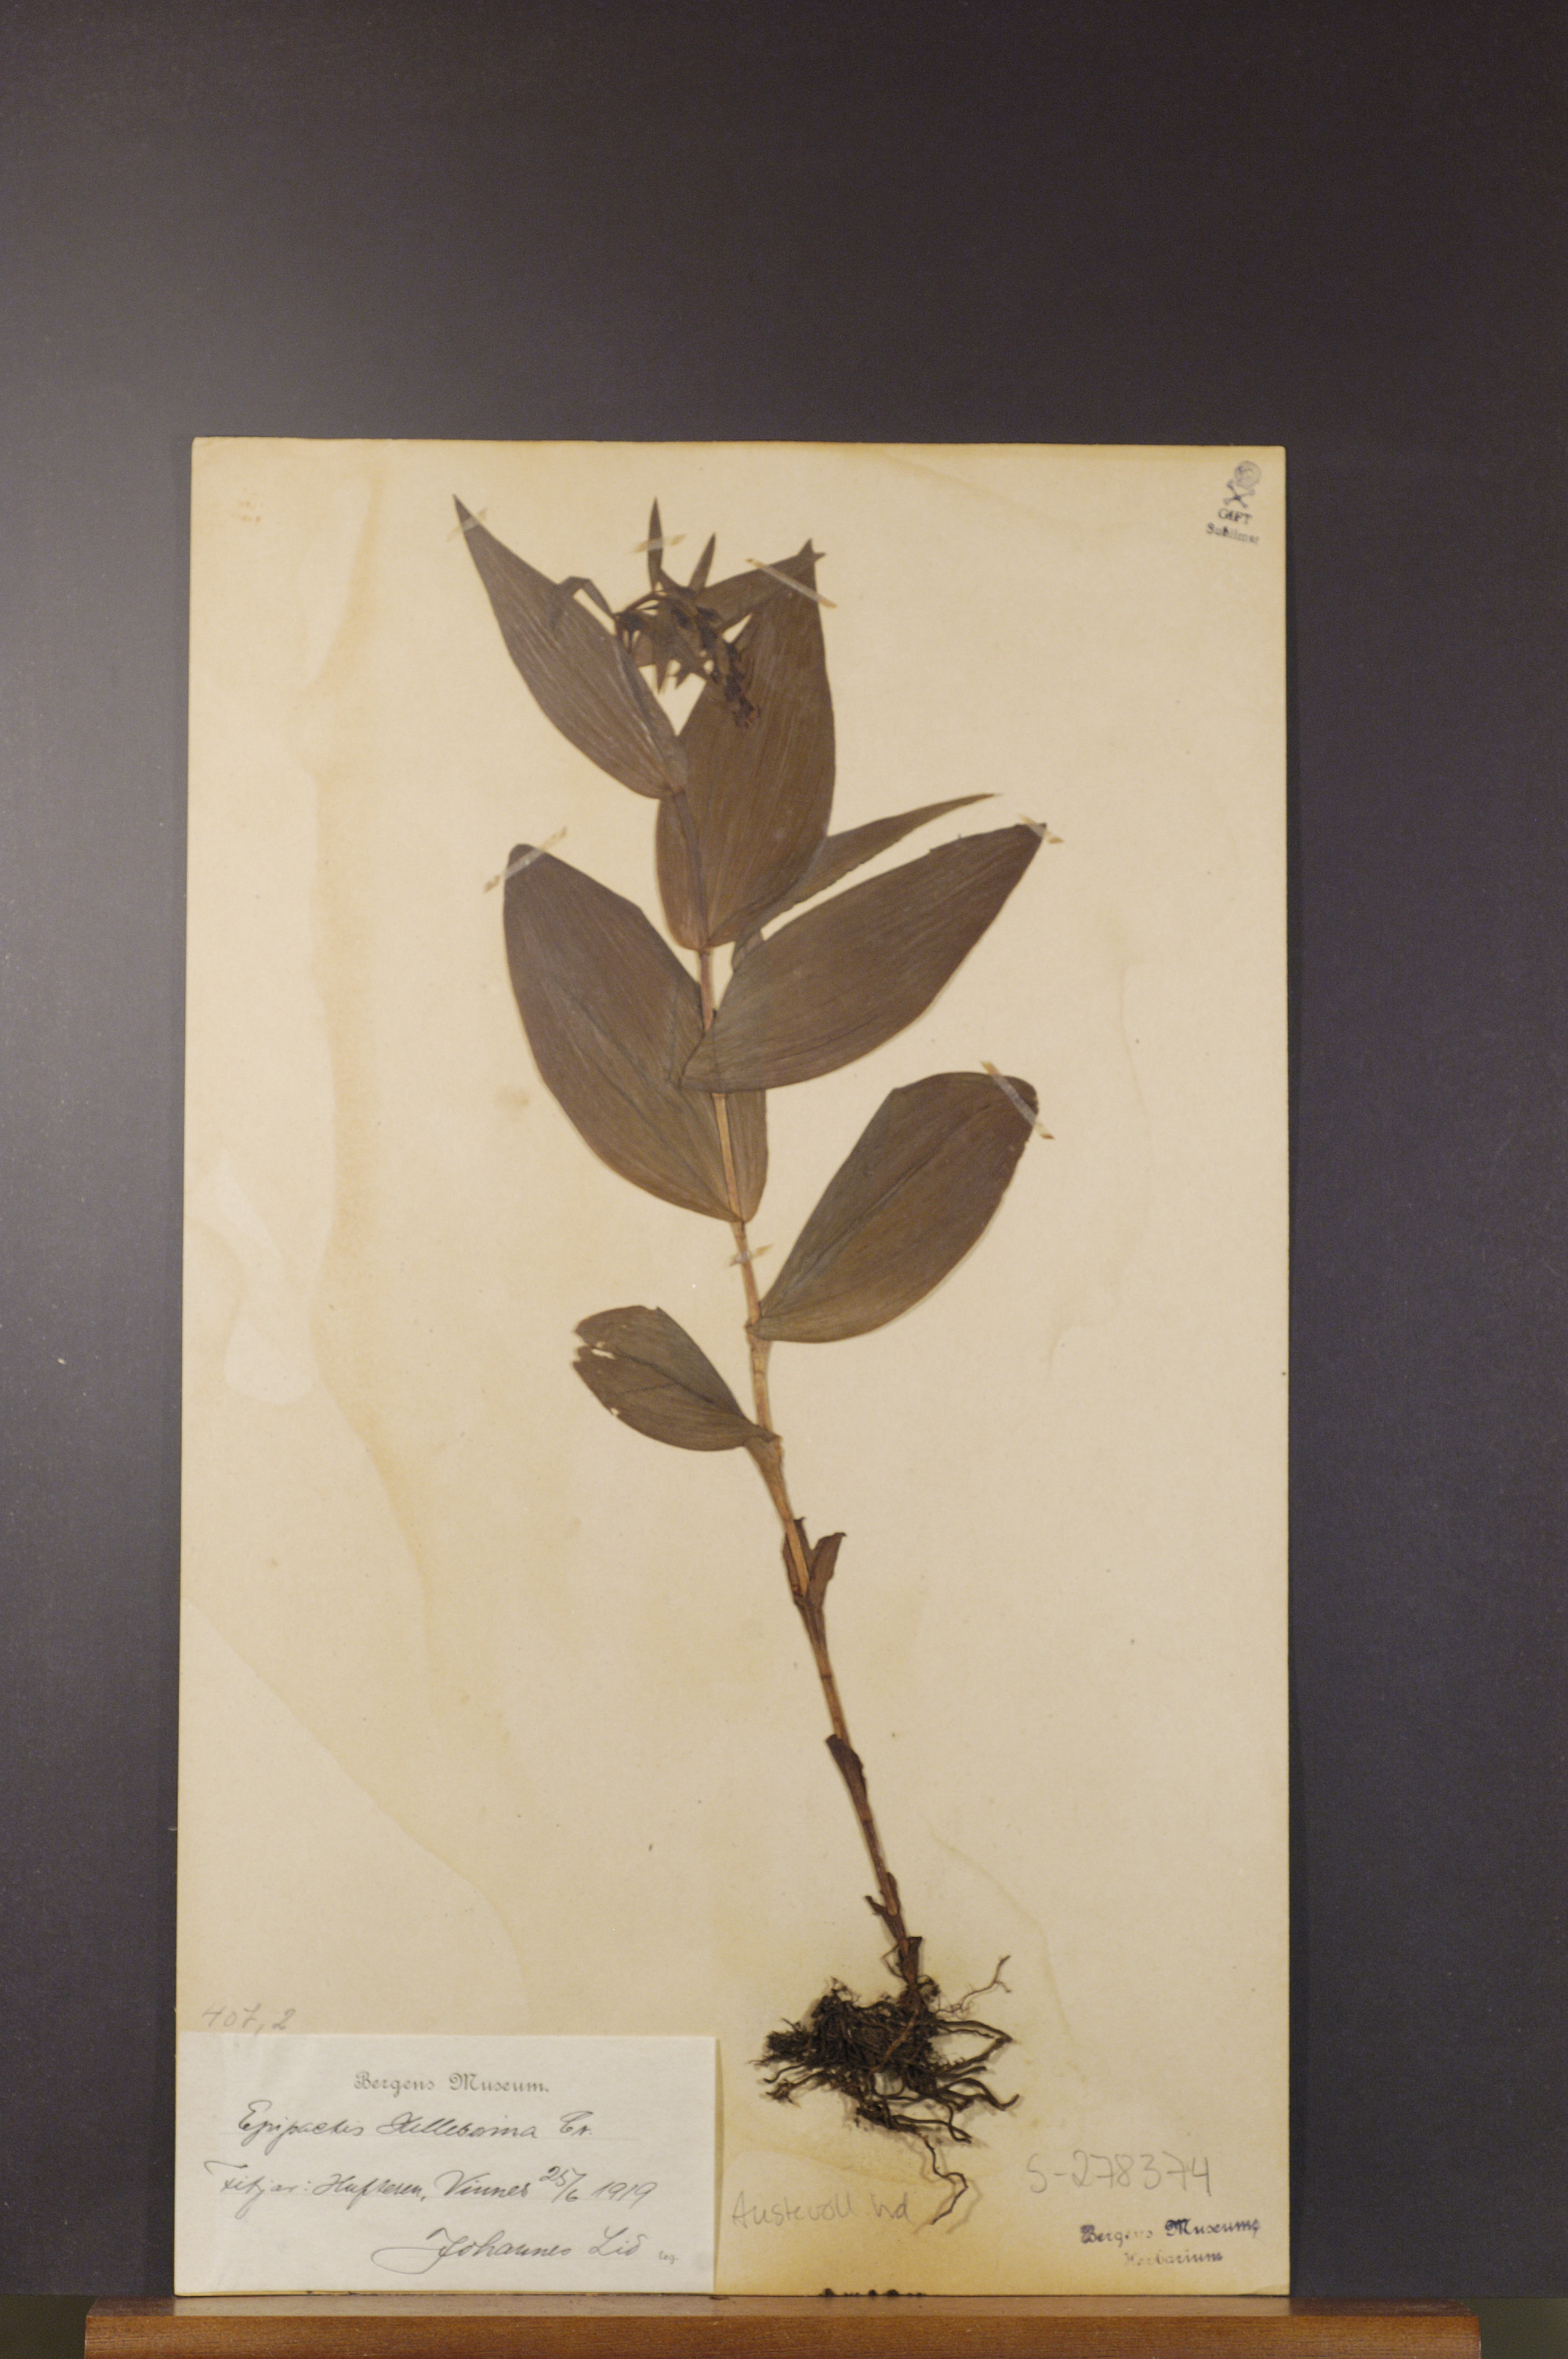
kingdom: Plantae
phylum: Tracheophyta
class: Liliopsida
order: Asparagales
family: Orchidaceae
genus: Epipactis
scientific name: Epipactis helleborine
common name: Broad-leaved helleborine
